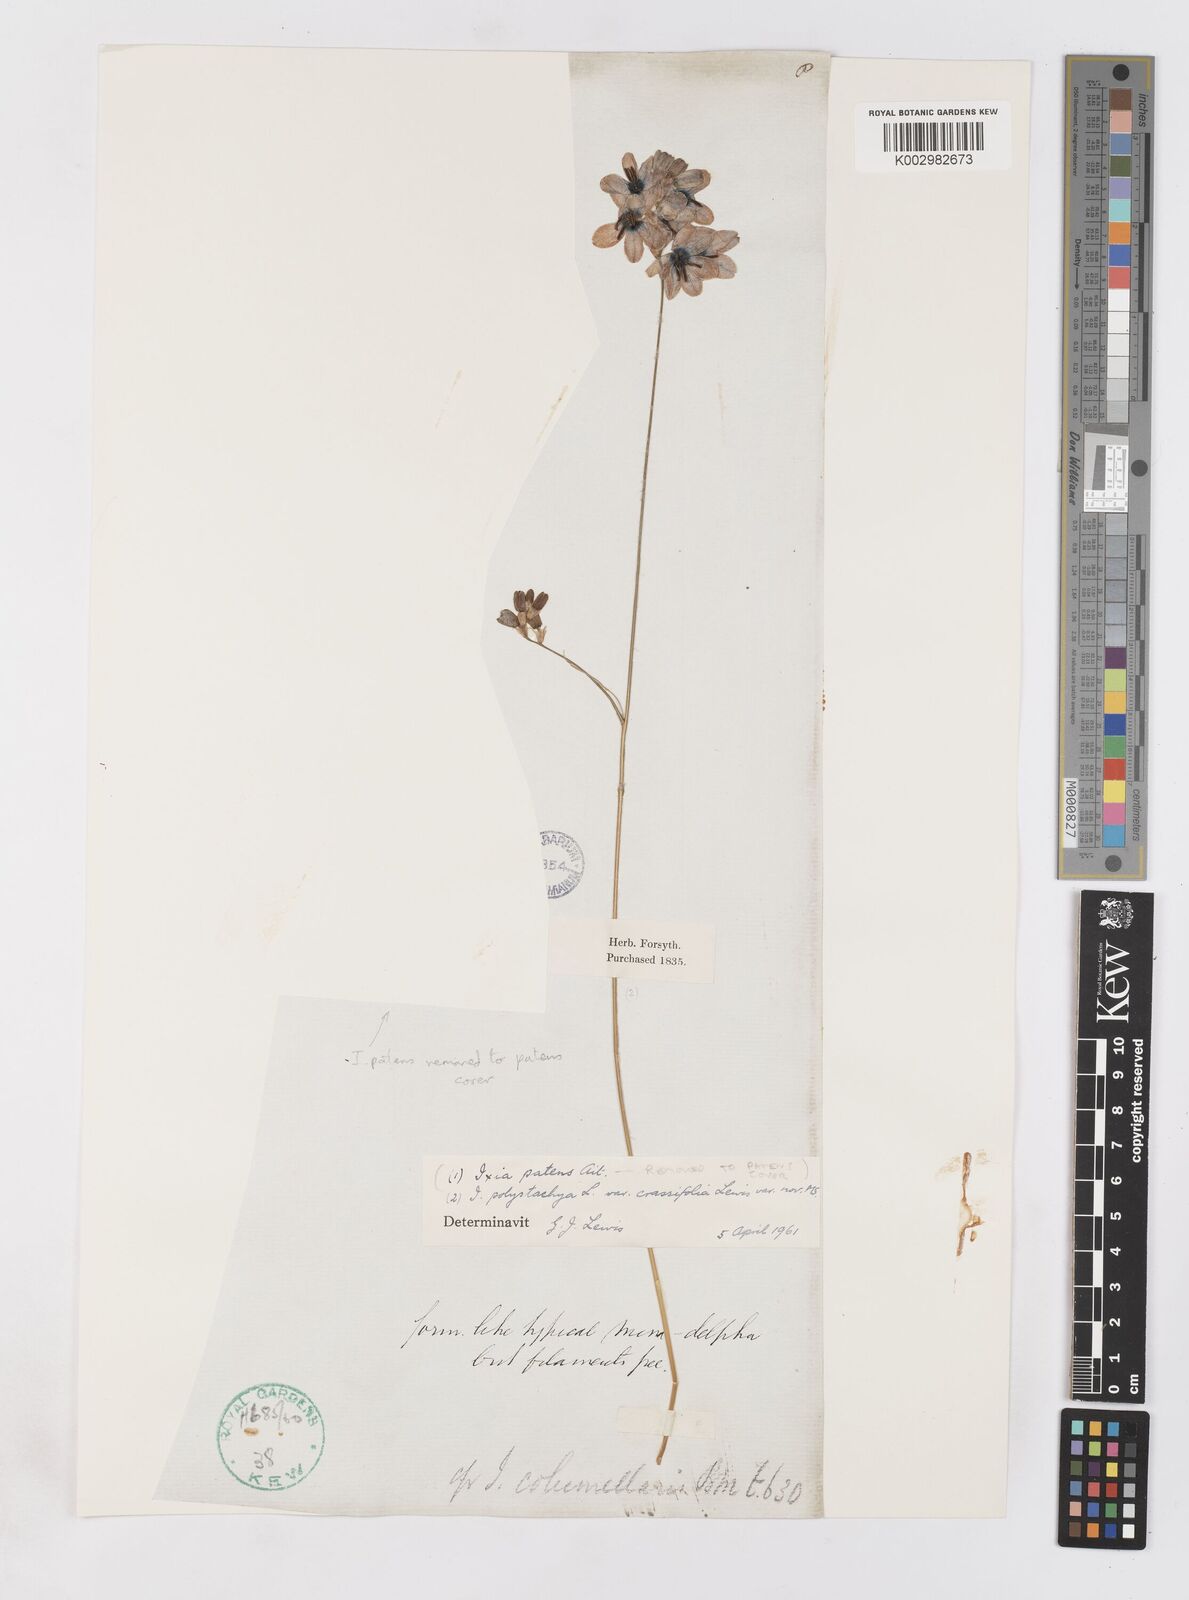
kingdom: Plantae
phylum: Tracheophyta
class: Liliopsida
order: Asparagales
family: Iridaceae
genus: Ixia
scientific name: Ixia polystachya
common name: White-and-yellow-flower cornlily
